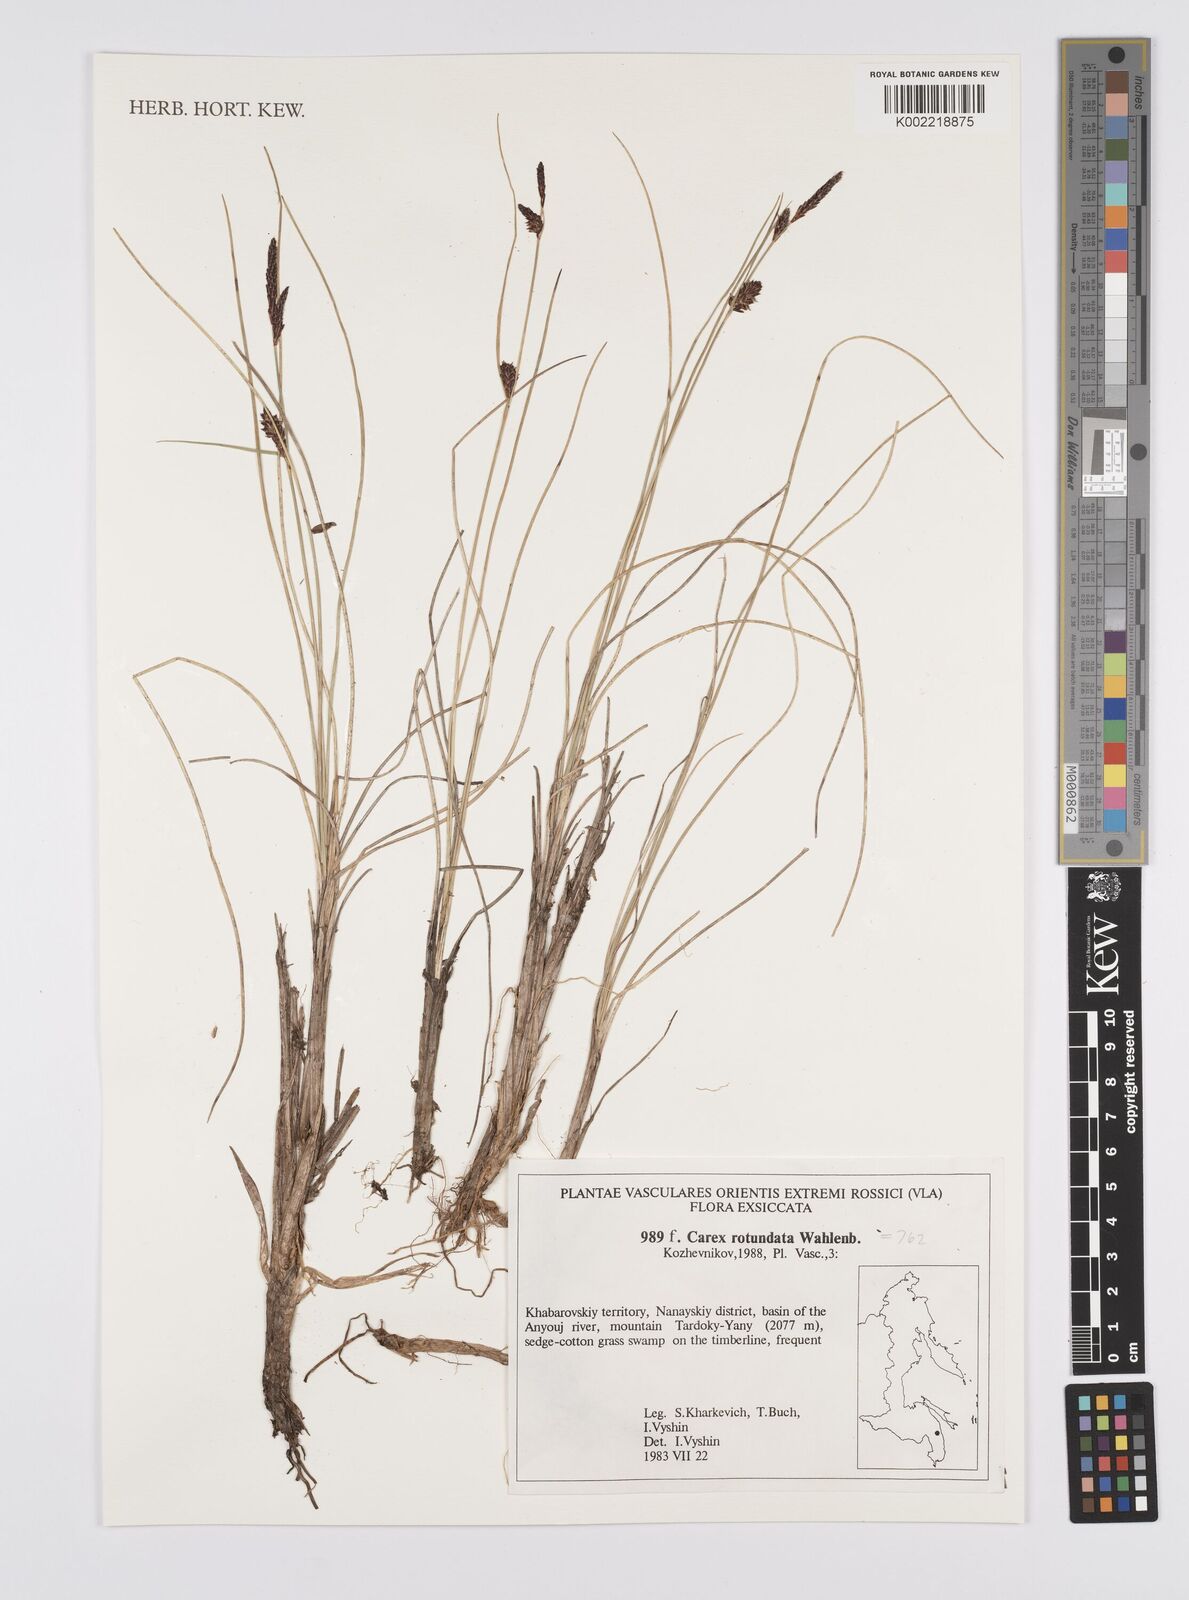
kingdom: Plantae
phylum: Tracheophyta
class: Liliopsida
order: Poales
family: Cyperaceae
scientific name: Cyperaceae
